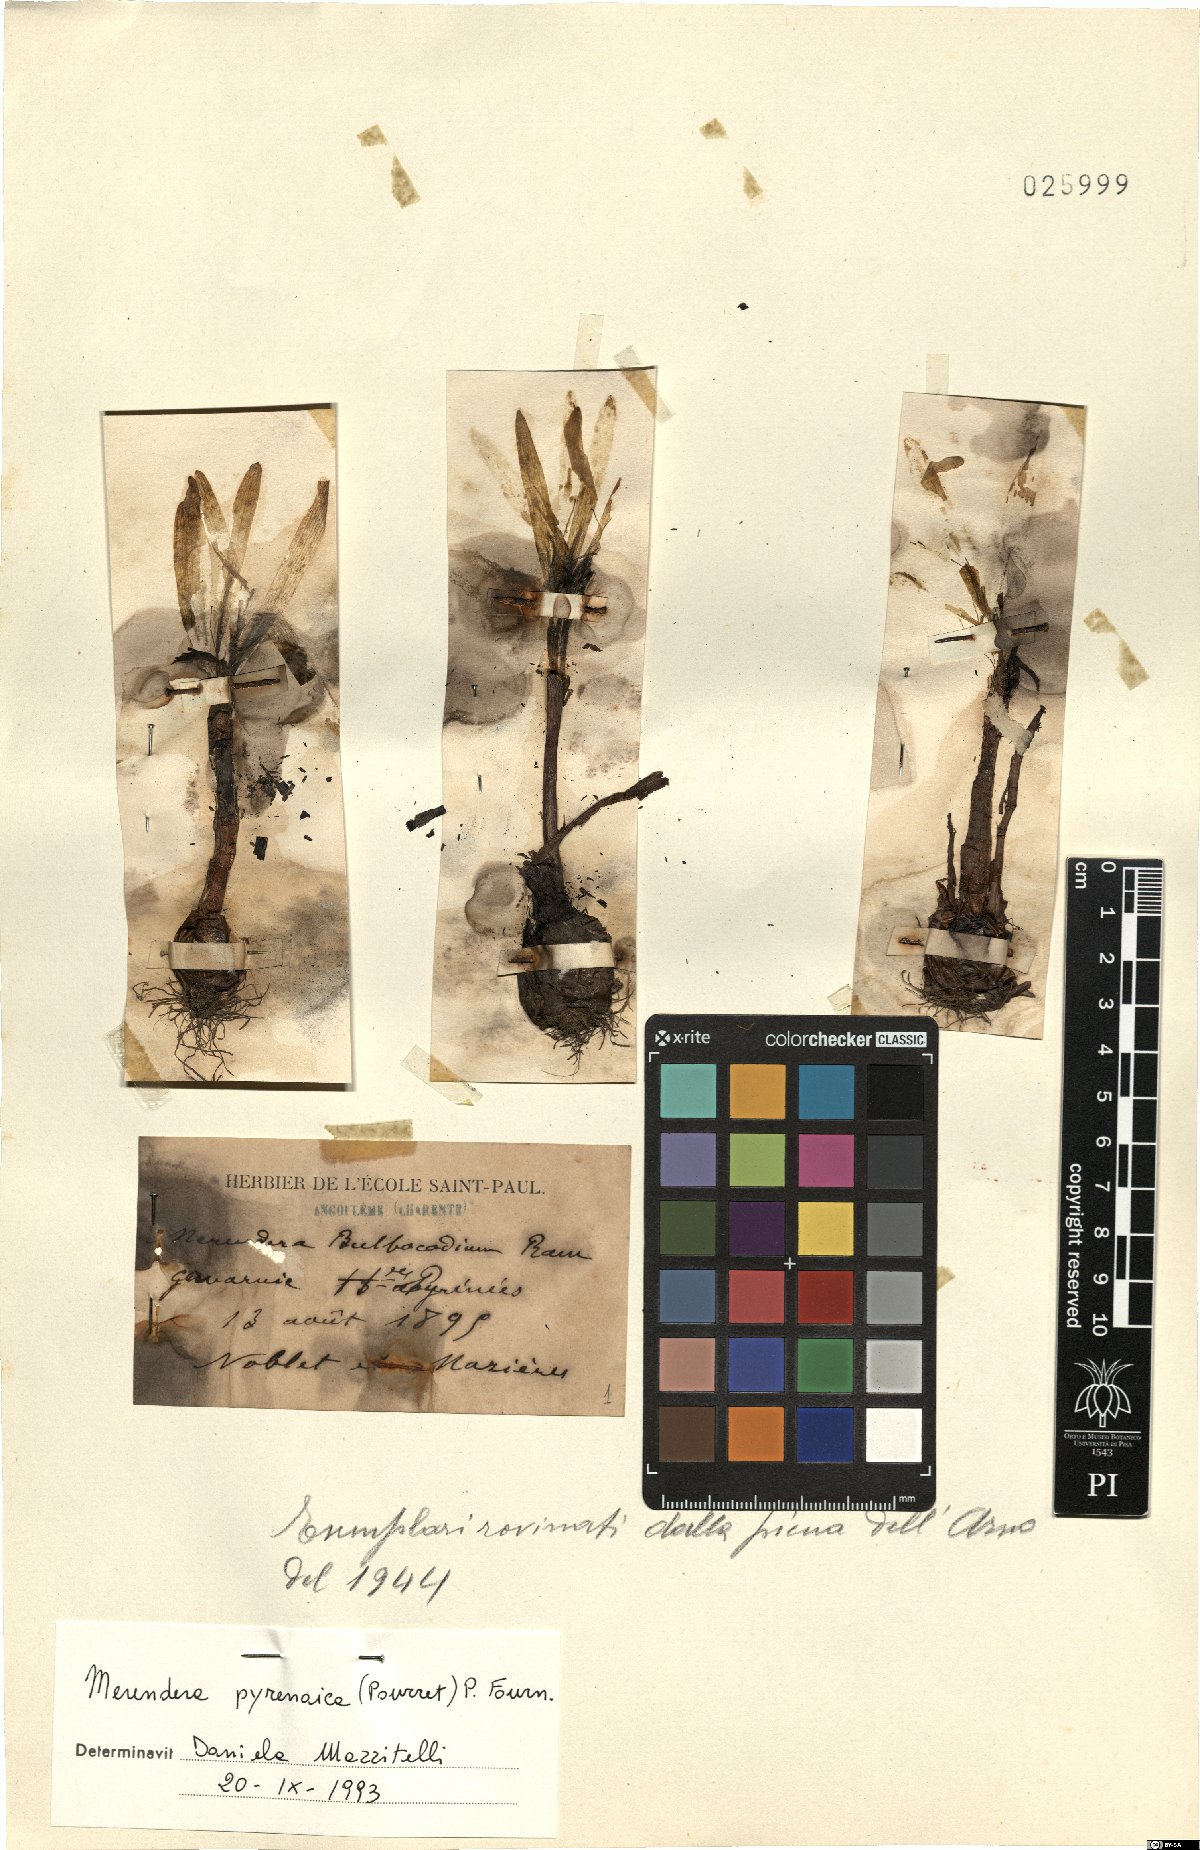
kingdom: Plantae
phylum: Tracheophyta
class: Liliopsida
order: Liliales
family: Colchicaceae
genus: Colchicum
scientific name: Colchicum montanum
